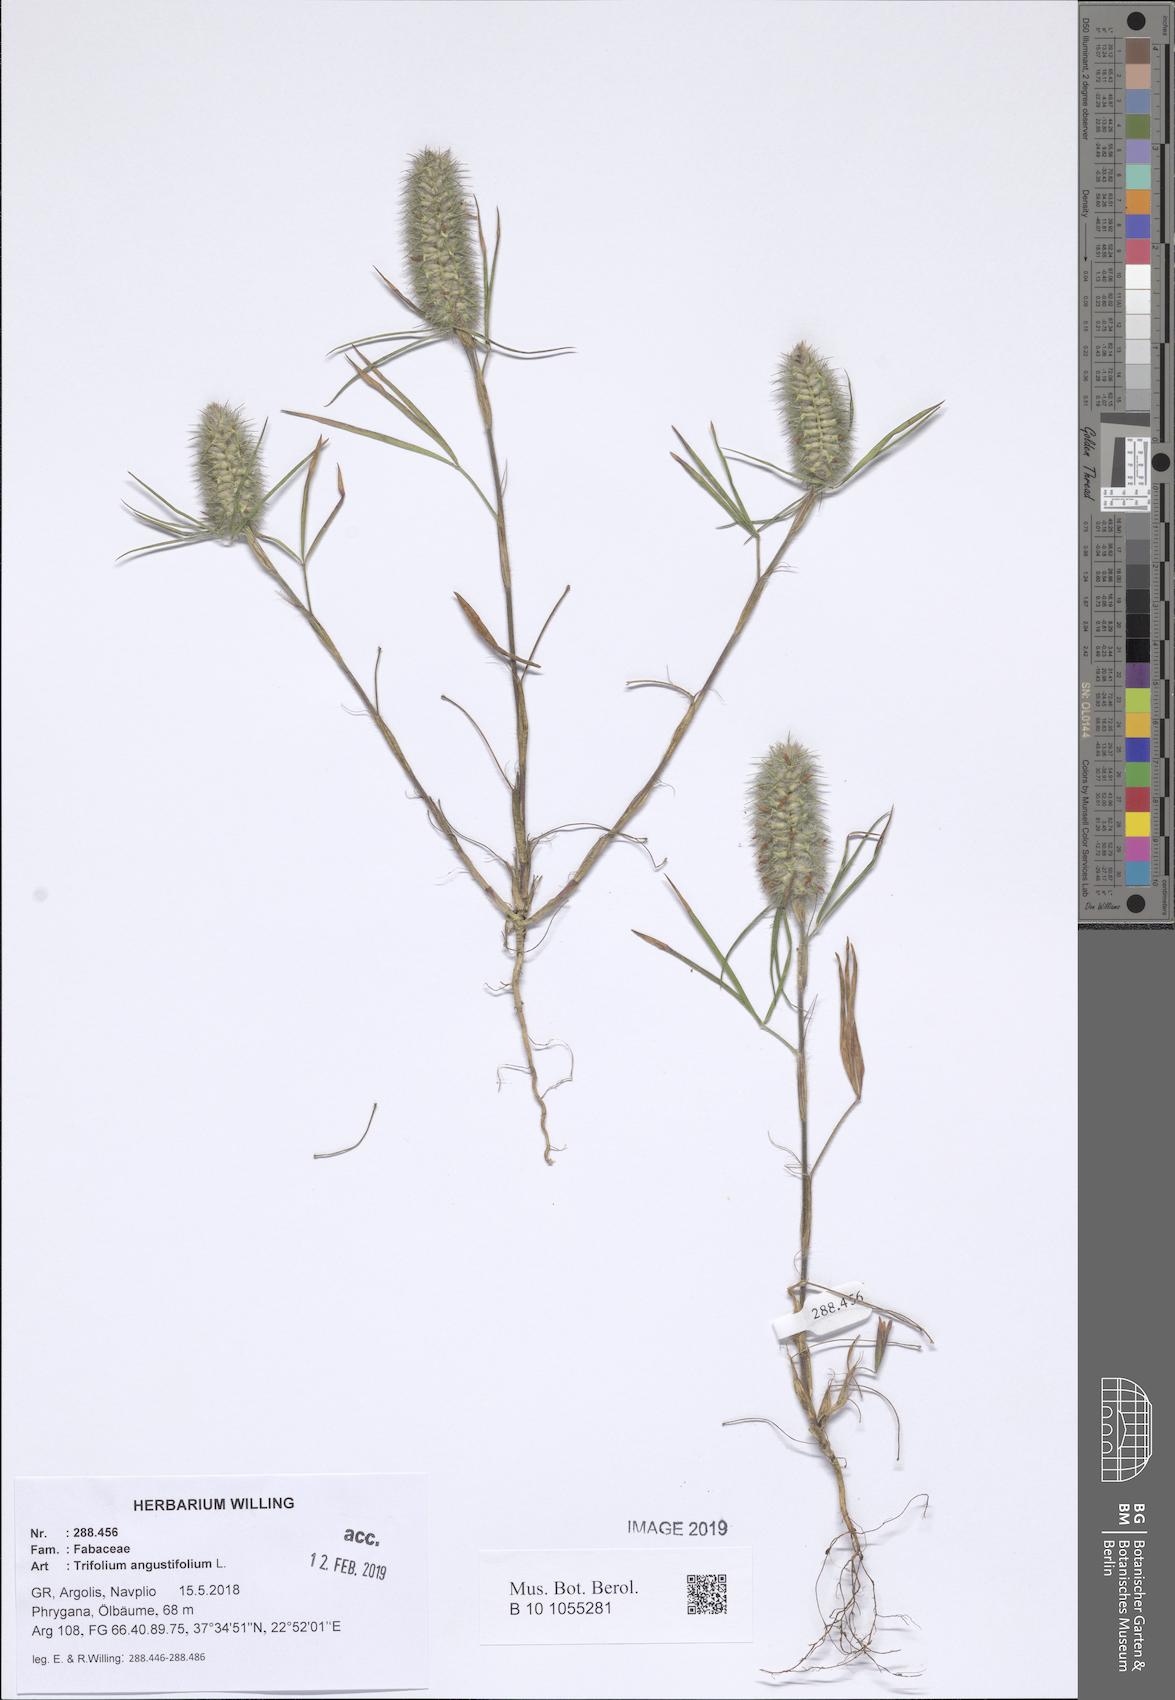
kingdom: Plantae
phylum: Tracheophyta
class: Magnoliopsida
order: Fabales
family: Fabaceae
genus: Trifolium
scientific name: Trifolium angustifolium
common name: Narrow clover
